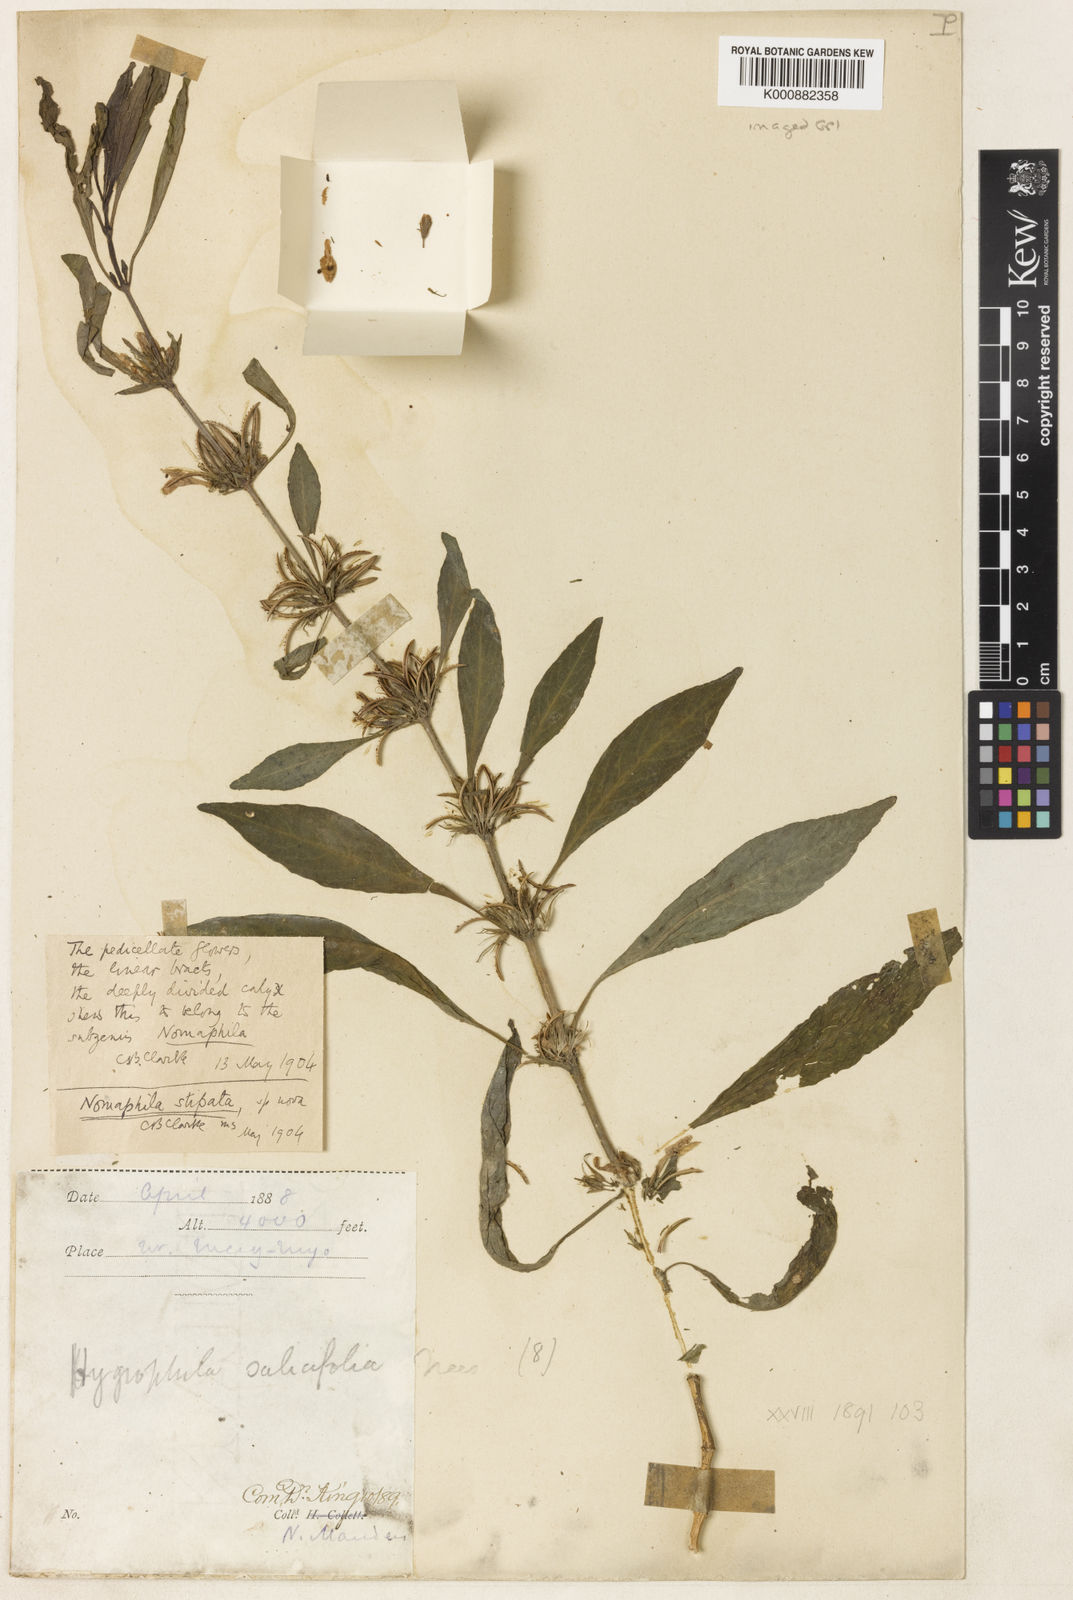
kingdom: Plantae
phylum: Tracheophyta
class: Magnoliopsida
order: Lamiales
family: Acanthaceae
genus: Hygrophila
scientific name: Hygrophila
